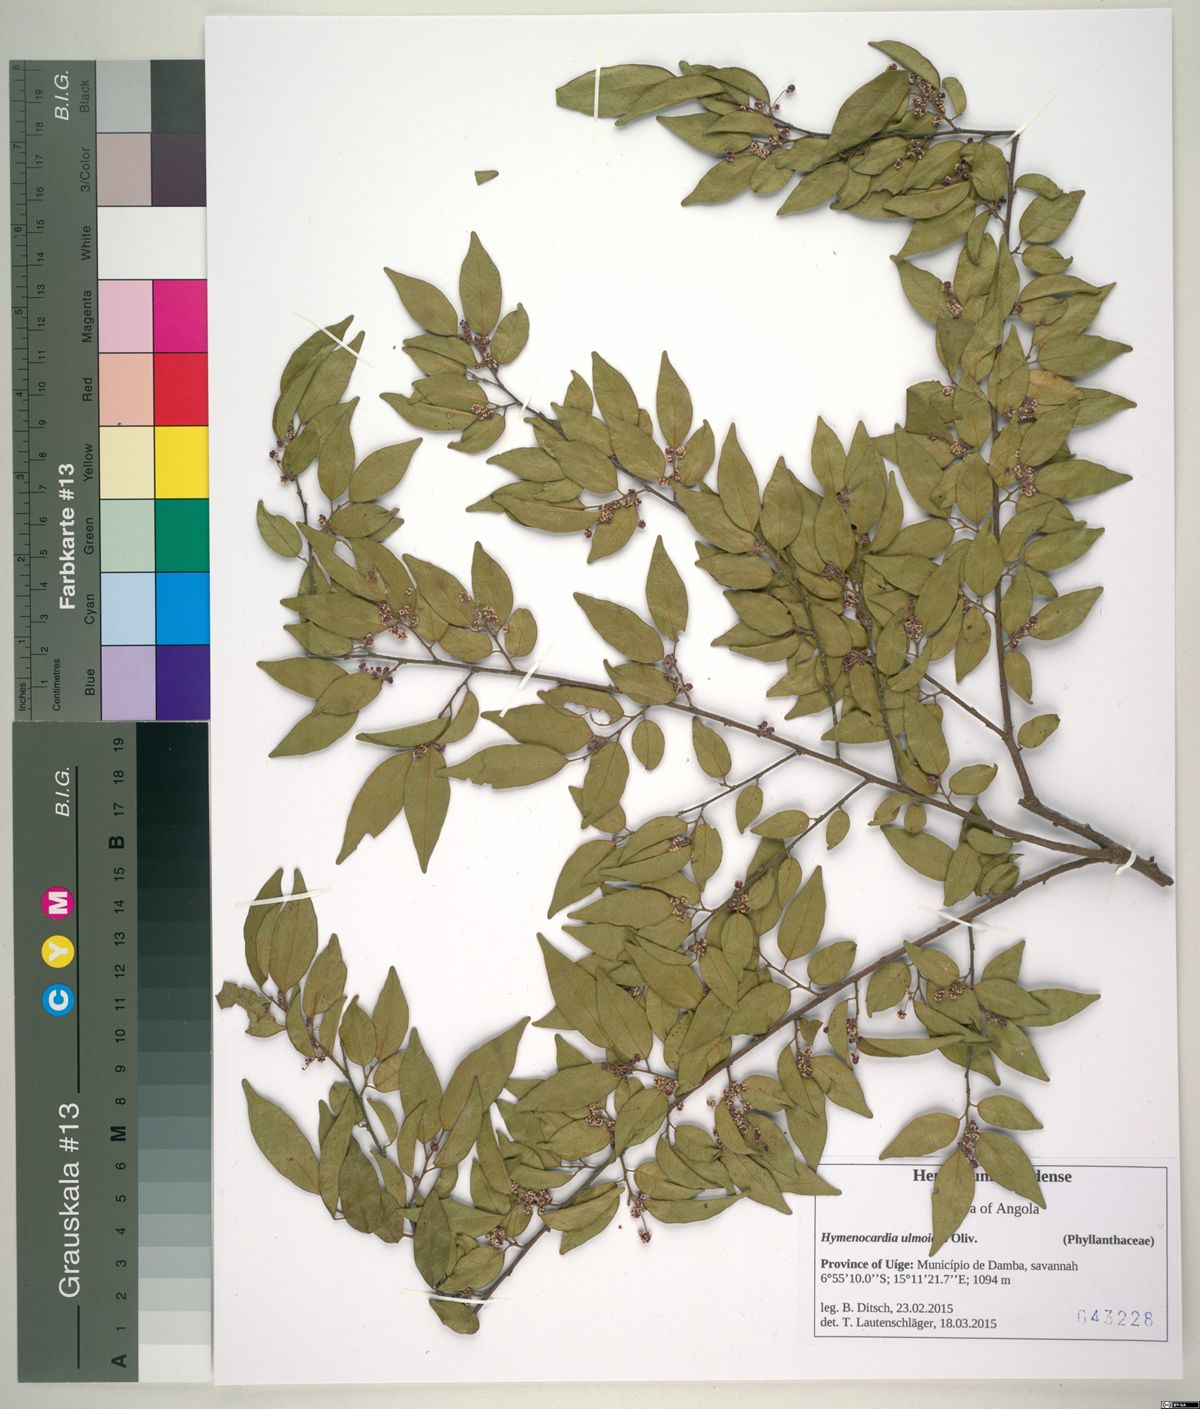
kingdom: Plantae
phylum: Tracheophyta
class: Magnoliopsida
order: Malpighiales
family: Phyllanthaceae
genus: Hymenocardia
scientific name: Hymenocardia ulmoides
